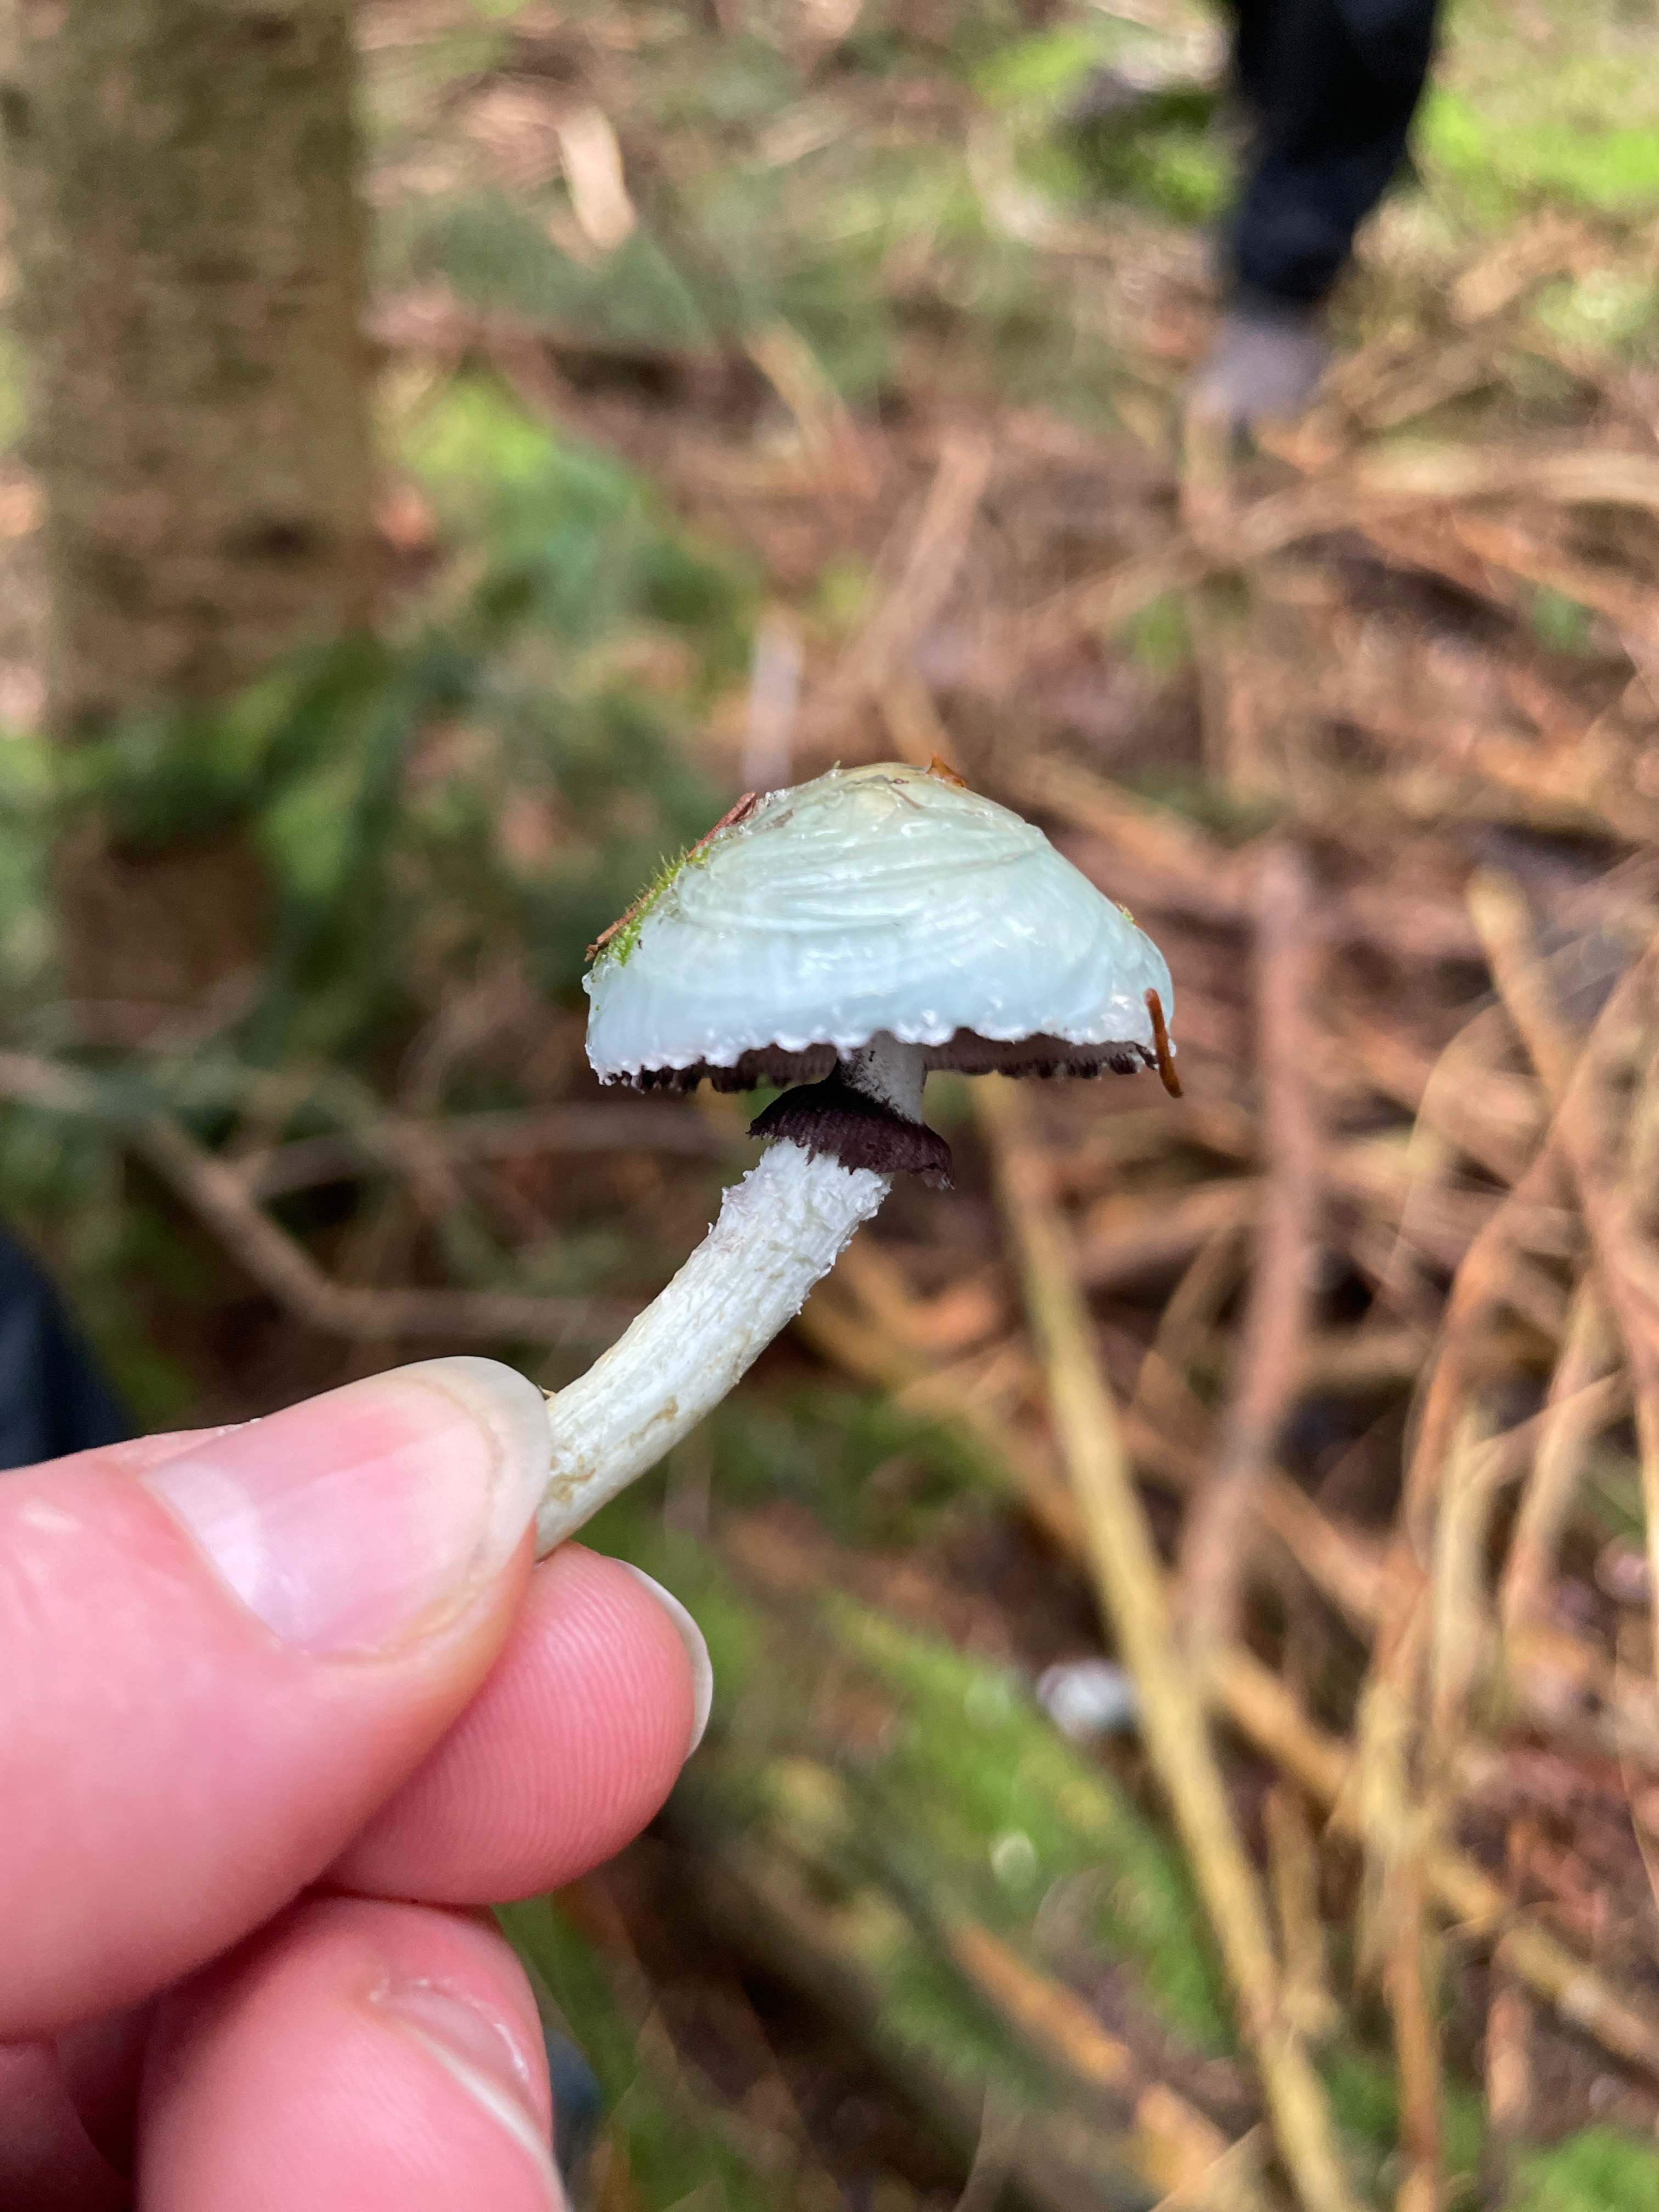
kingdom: Fungi
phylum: Basidiomycota
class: Agaricomycetes
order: Agaricales
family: Strophariaceae
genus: Stropharia
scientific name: Stropharia aeruginosa
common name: spanskgrøn bredblad
